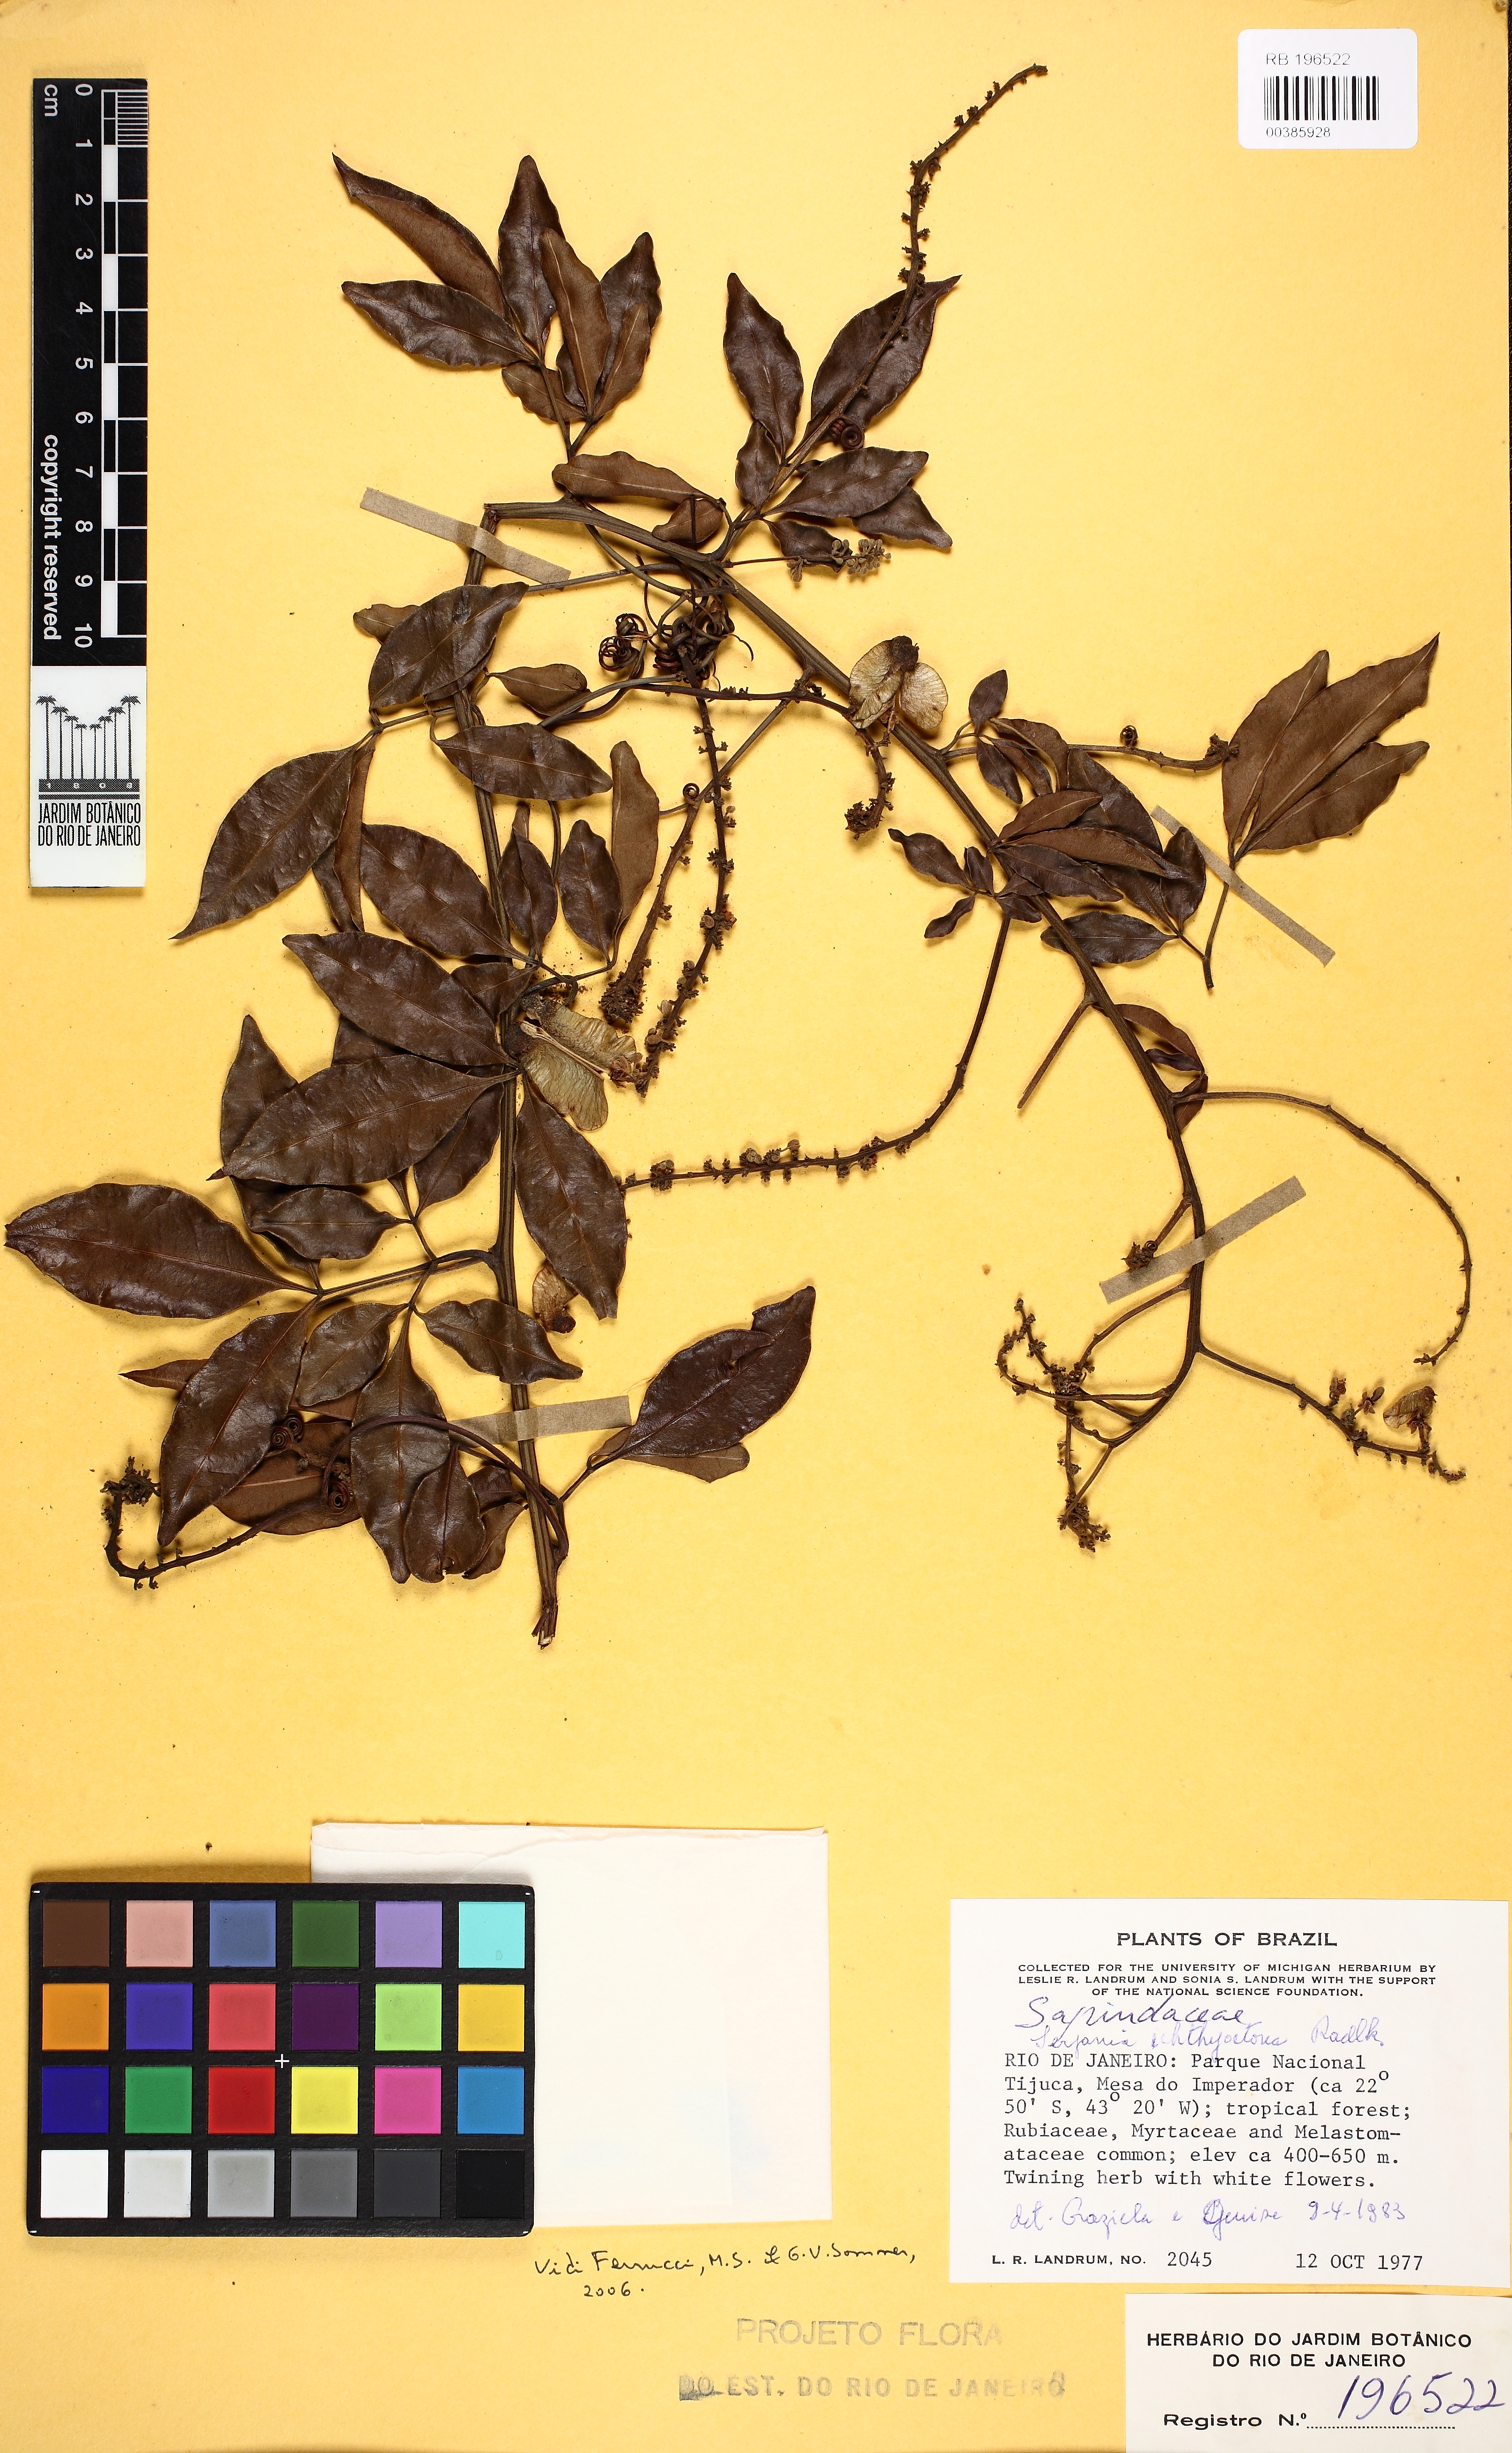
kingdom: Plantae
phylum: Tracheophyta
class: Magnoliopsida
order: Sapindales
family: Sapindaceae
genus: Serjania
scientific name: Serjania ichthyctona
